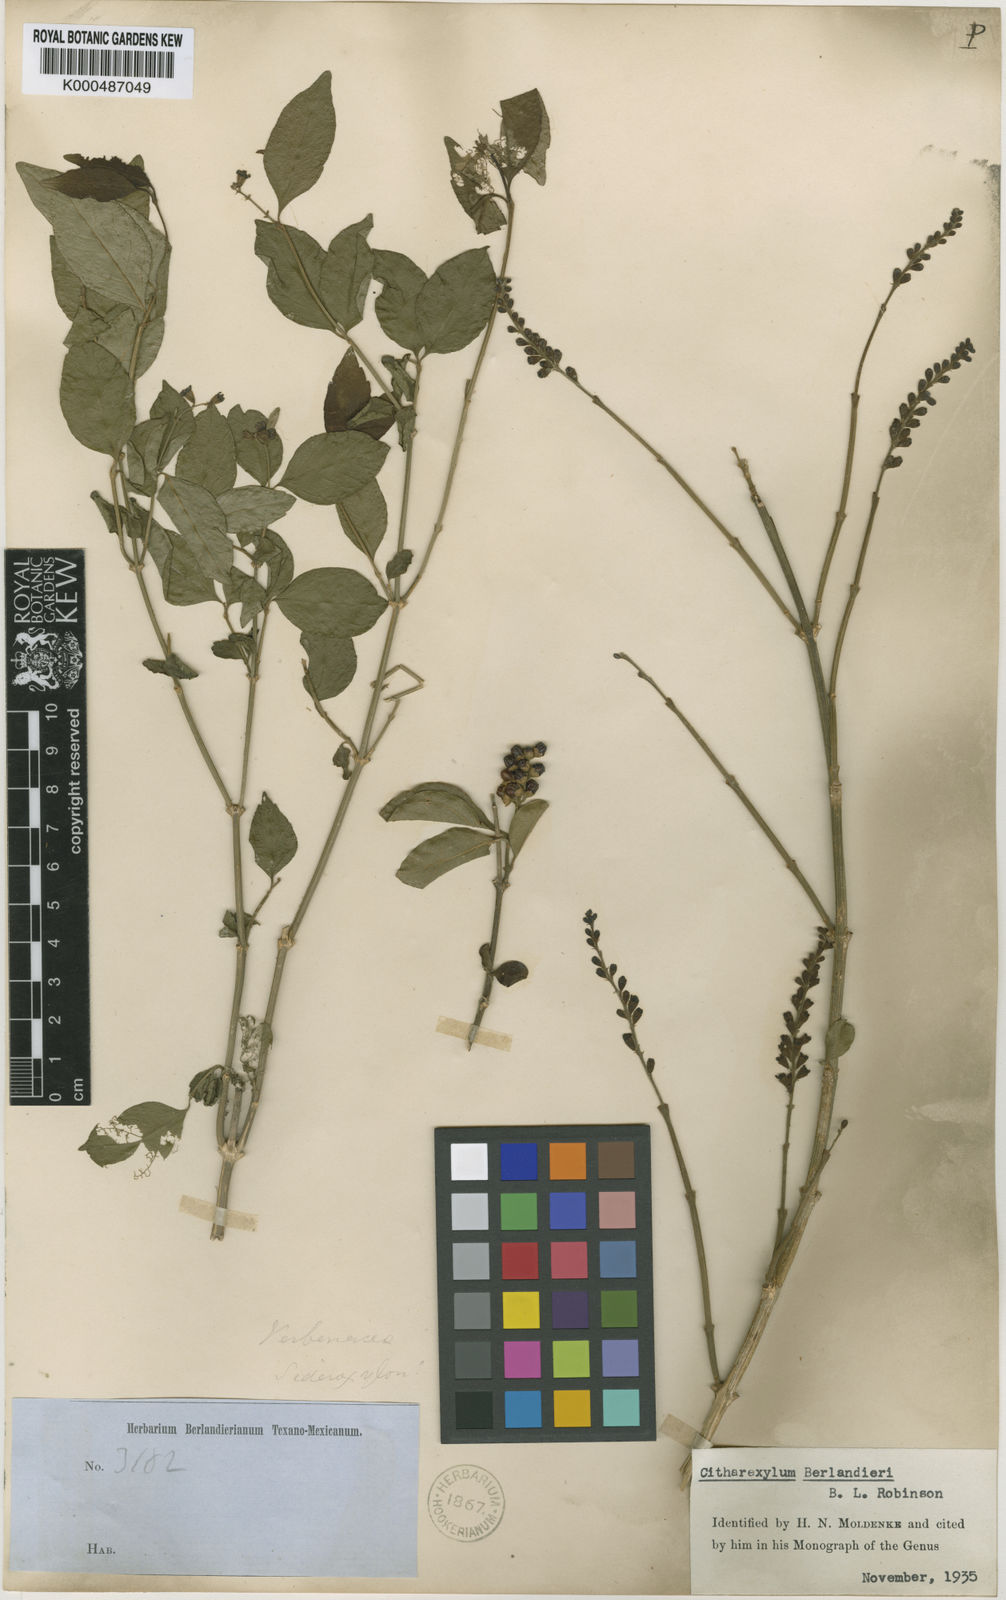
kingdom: Plantae
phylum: Tracheophyta
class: Magnoliopsida
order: Lamiales
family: Verbenaceae
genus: Citharexylum
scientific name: Citharexylum berlandieri
